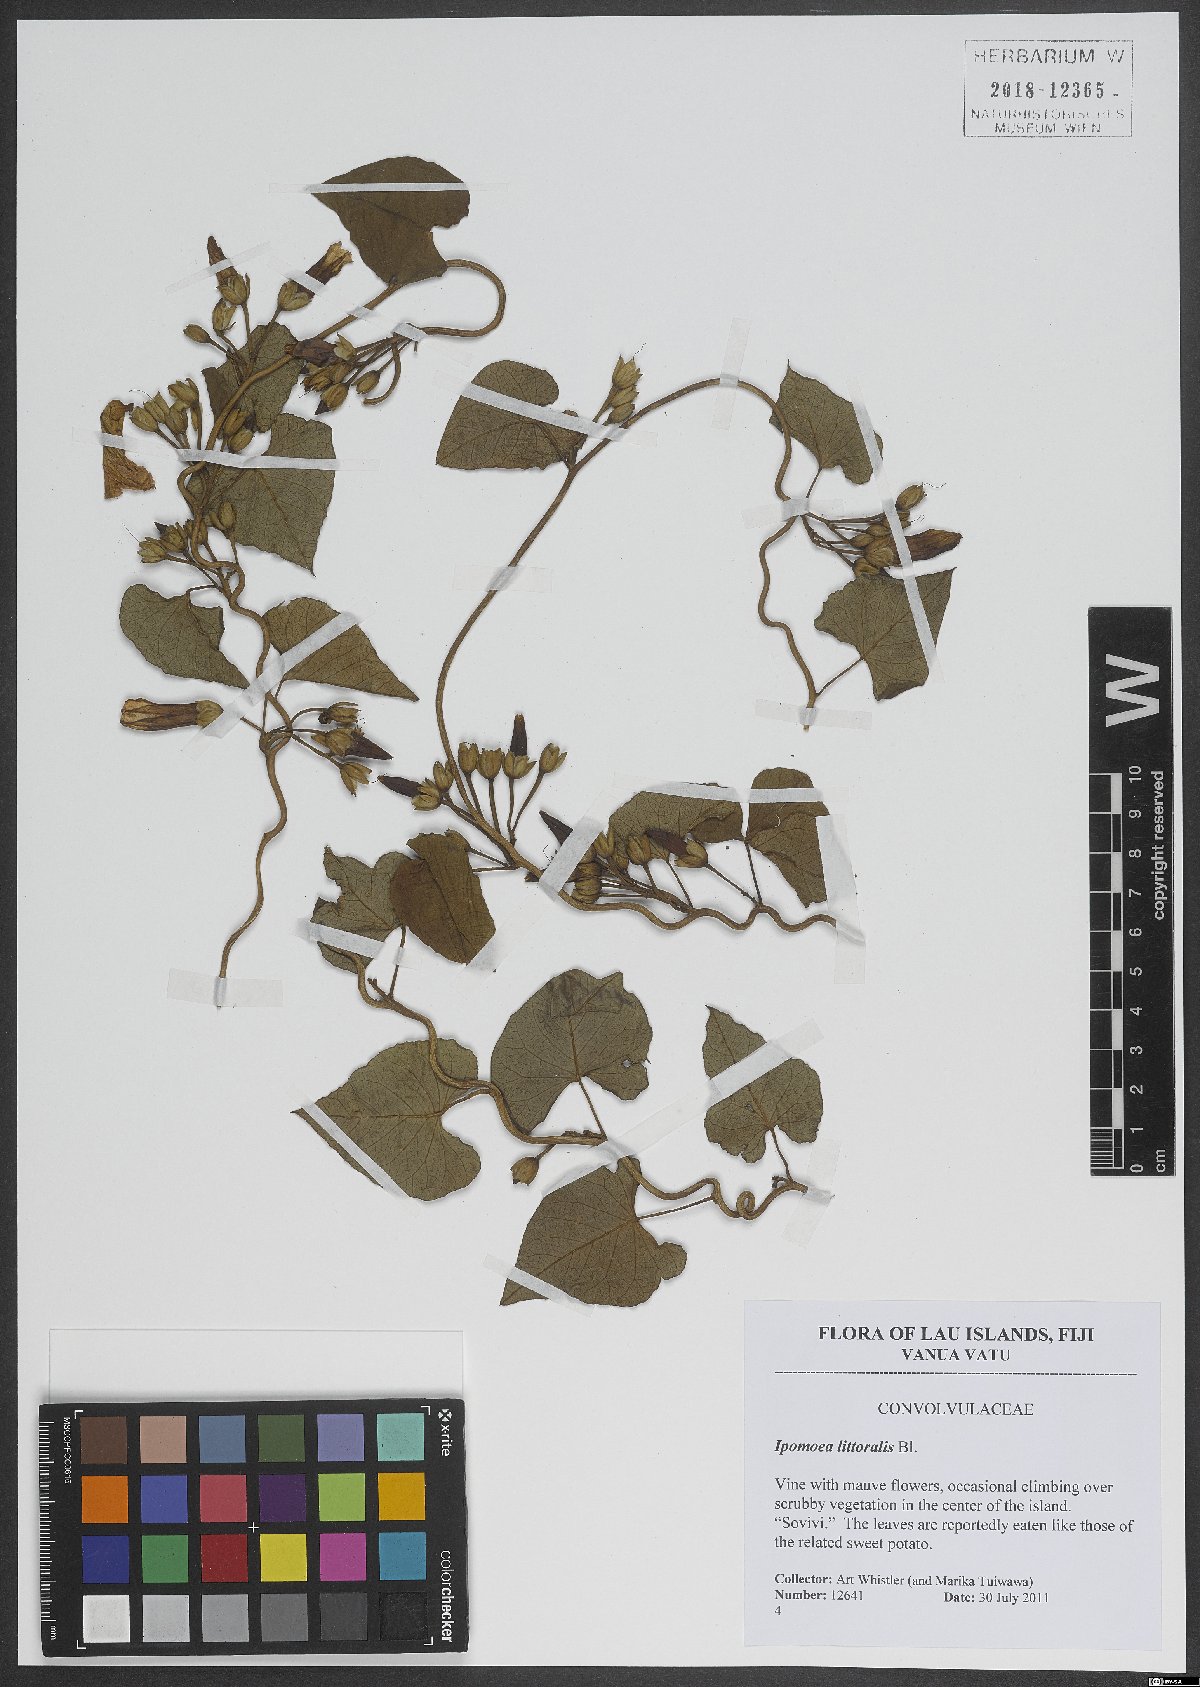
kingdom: Plantae
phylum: Tracheophyta
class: Magnoliopsida
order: Solanales
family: Convolvulaceae
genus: Ipomoea
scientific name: Ipomoea imperati
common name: Fiddle-leaf morning-glory
